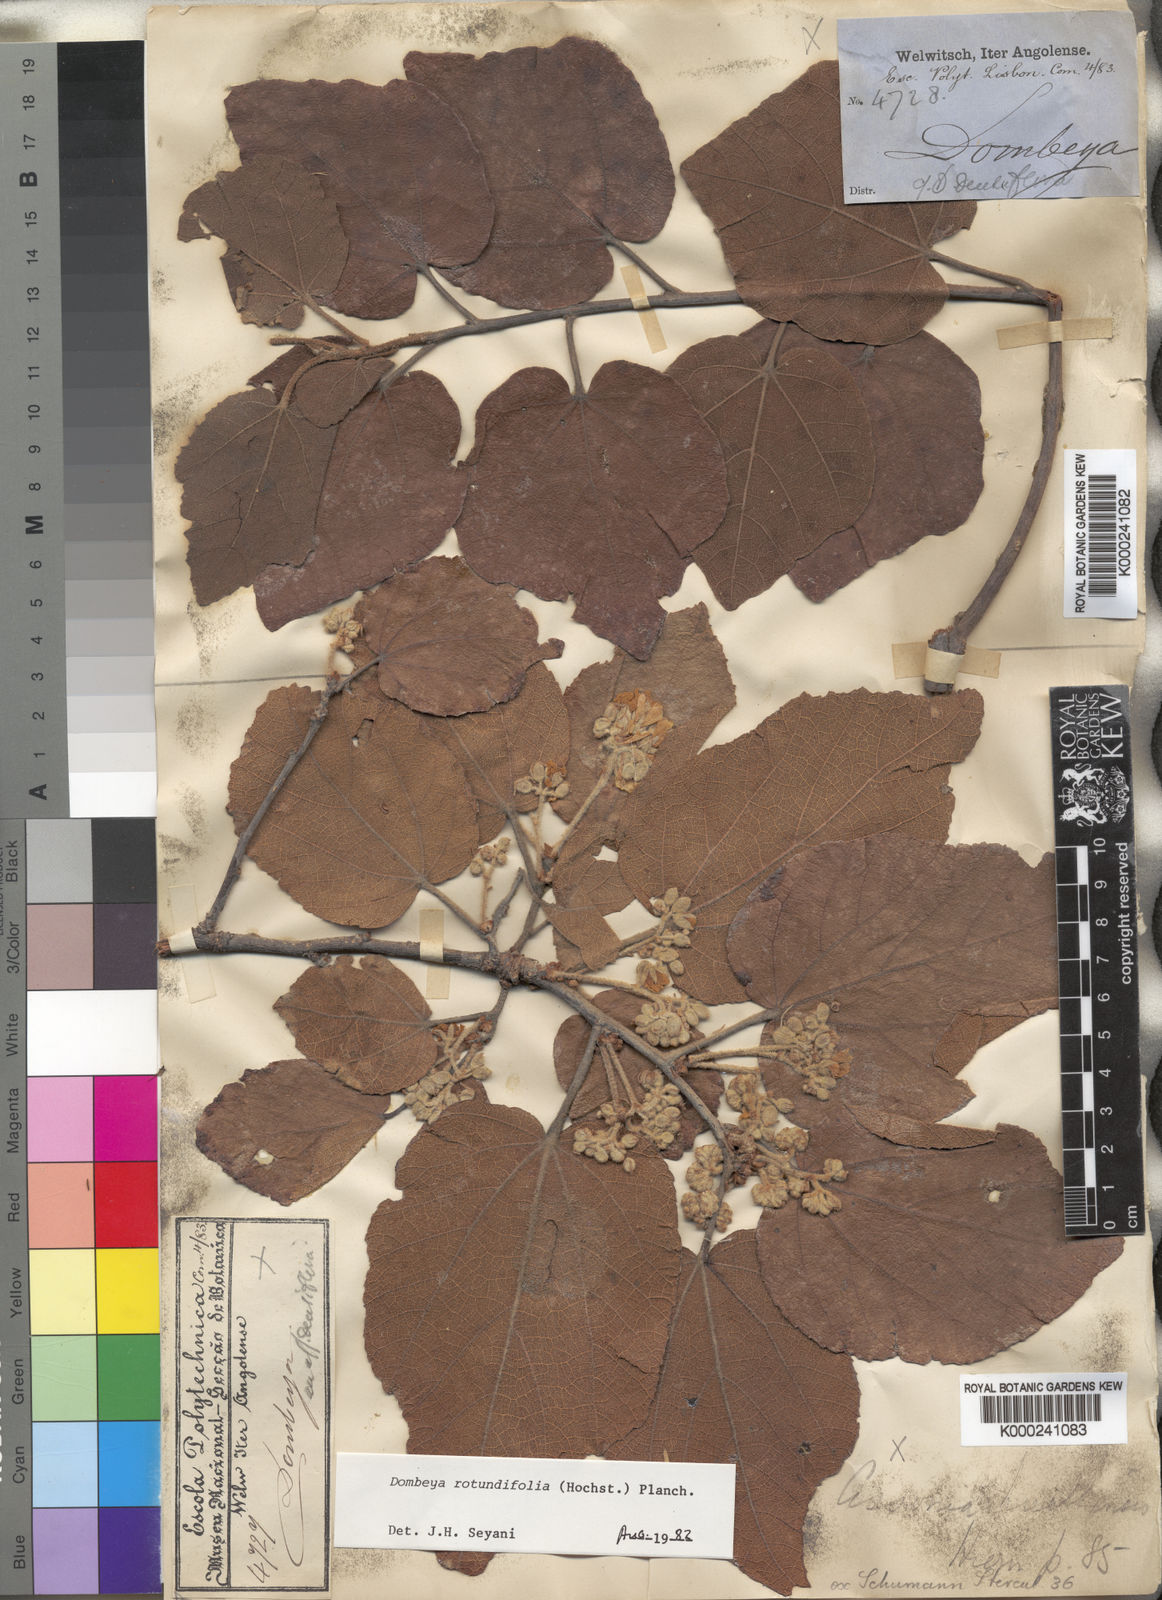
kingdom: Plantae
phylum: Tracheophyta
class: Magnoliopsida
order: Malvales
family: Malvaceae
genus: Dombeya
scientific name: Dombeya rotundifolia
